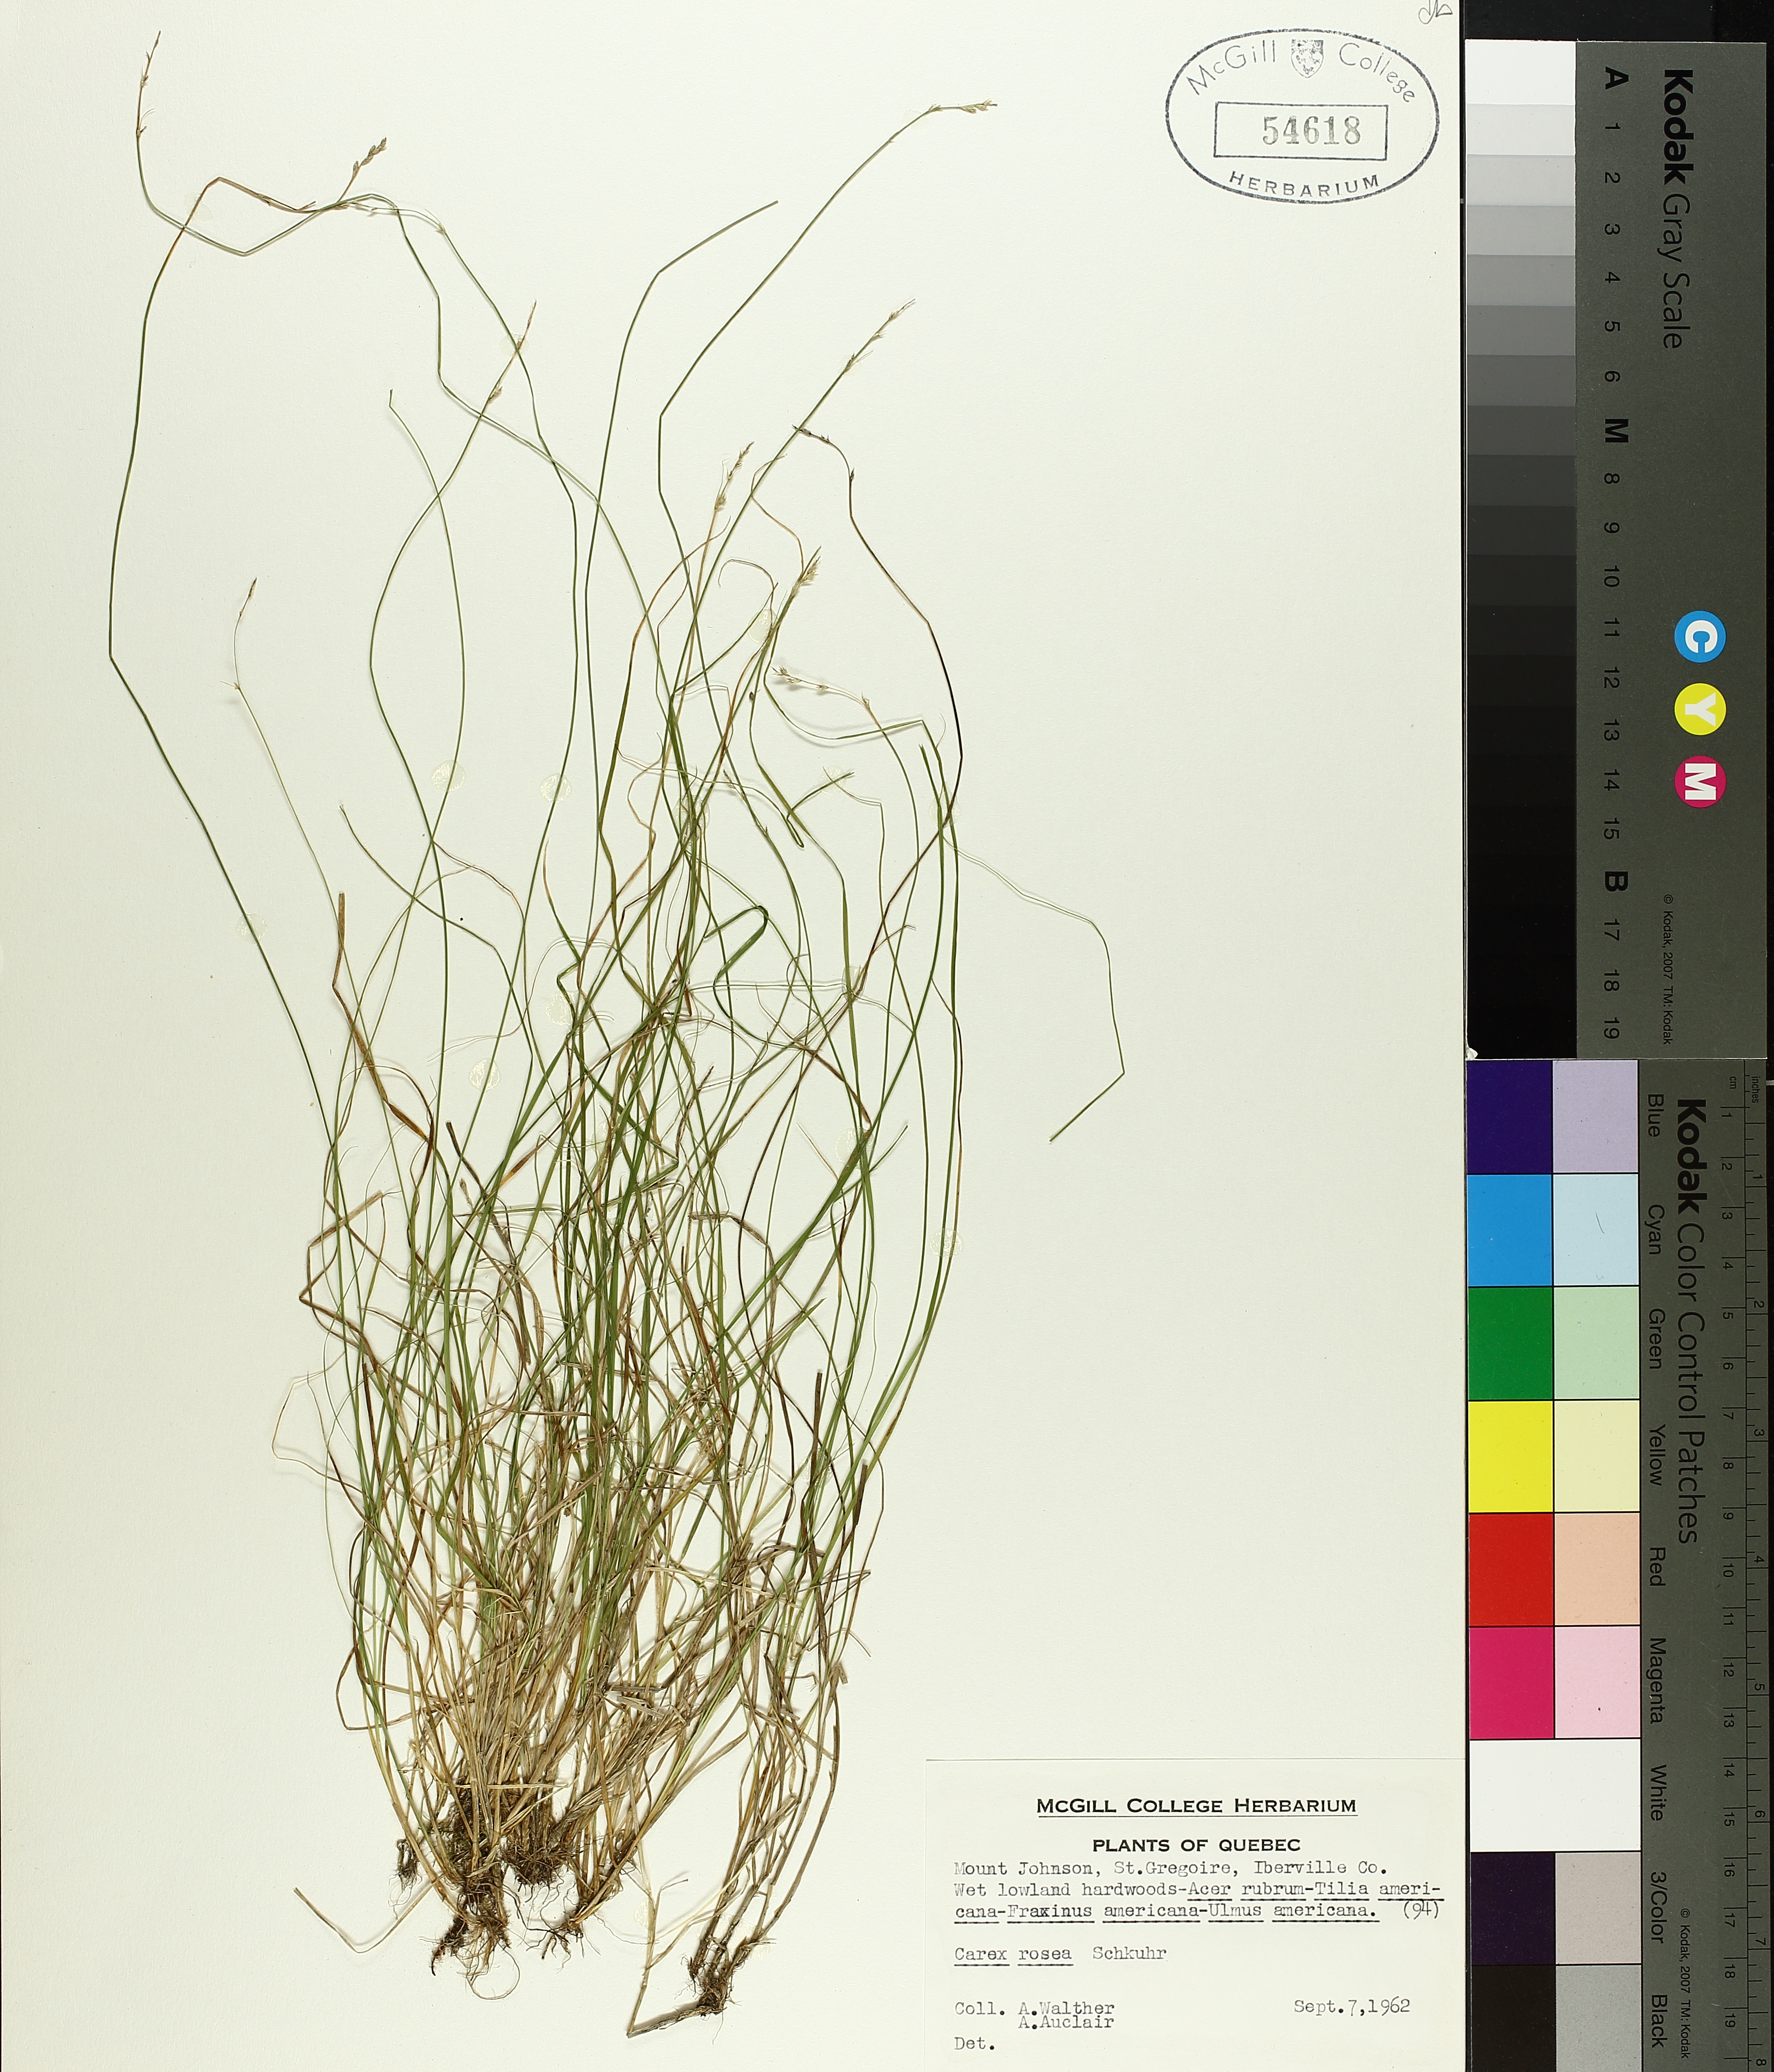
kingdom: Plantae
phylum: Tracheophyta
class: Liliopsida
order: Poales
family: Cyperaceae
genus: Carex
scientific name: Carex rosea
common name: Curly-styled wood sedge
